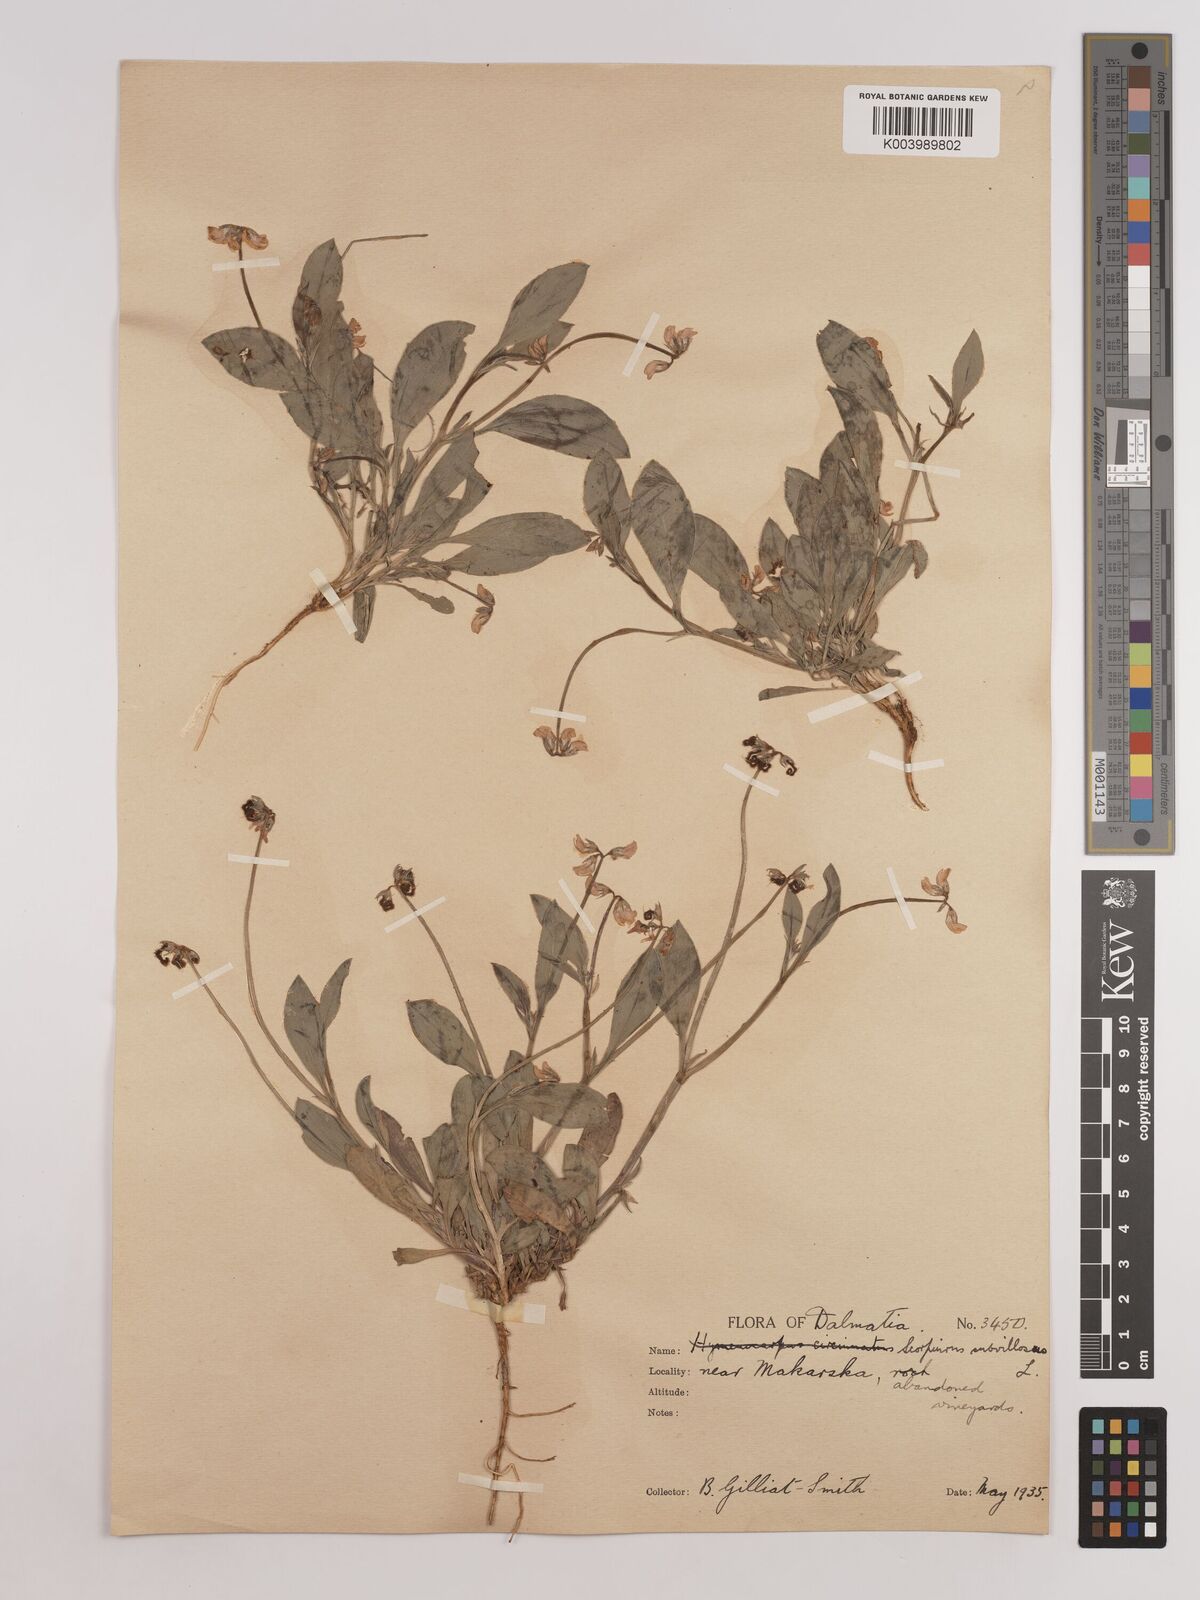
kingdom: Plantae
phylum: Tracheophyta
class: Magnoliopsida
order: Fabales
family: Fabaceae
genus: Scorpiurus
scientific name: Scorpiurus muricatus
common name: Caterpillar-plant
